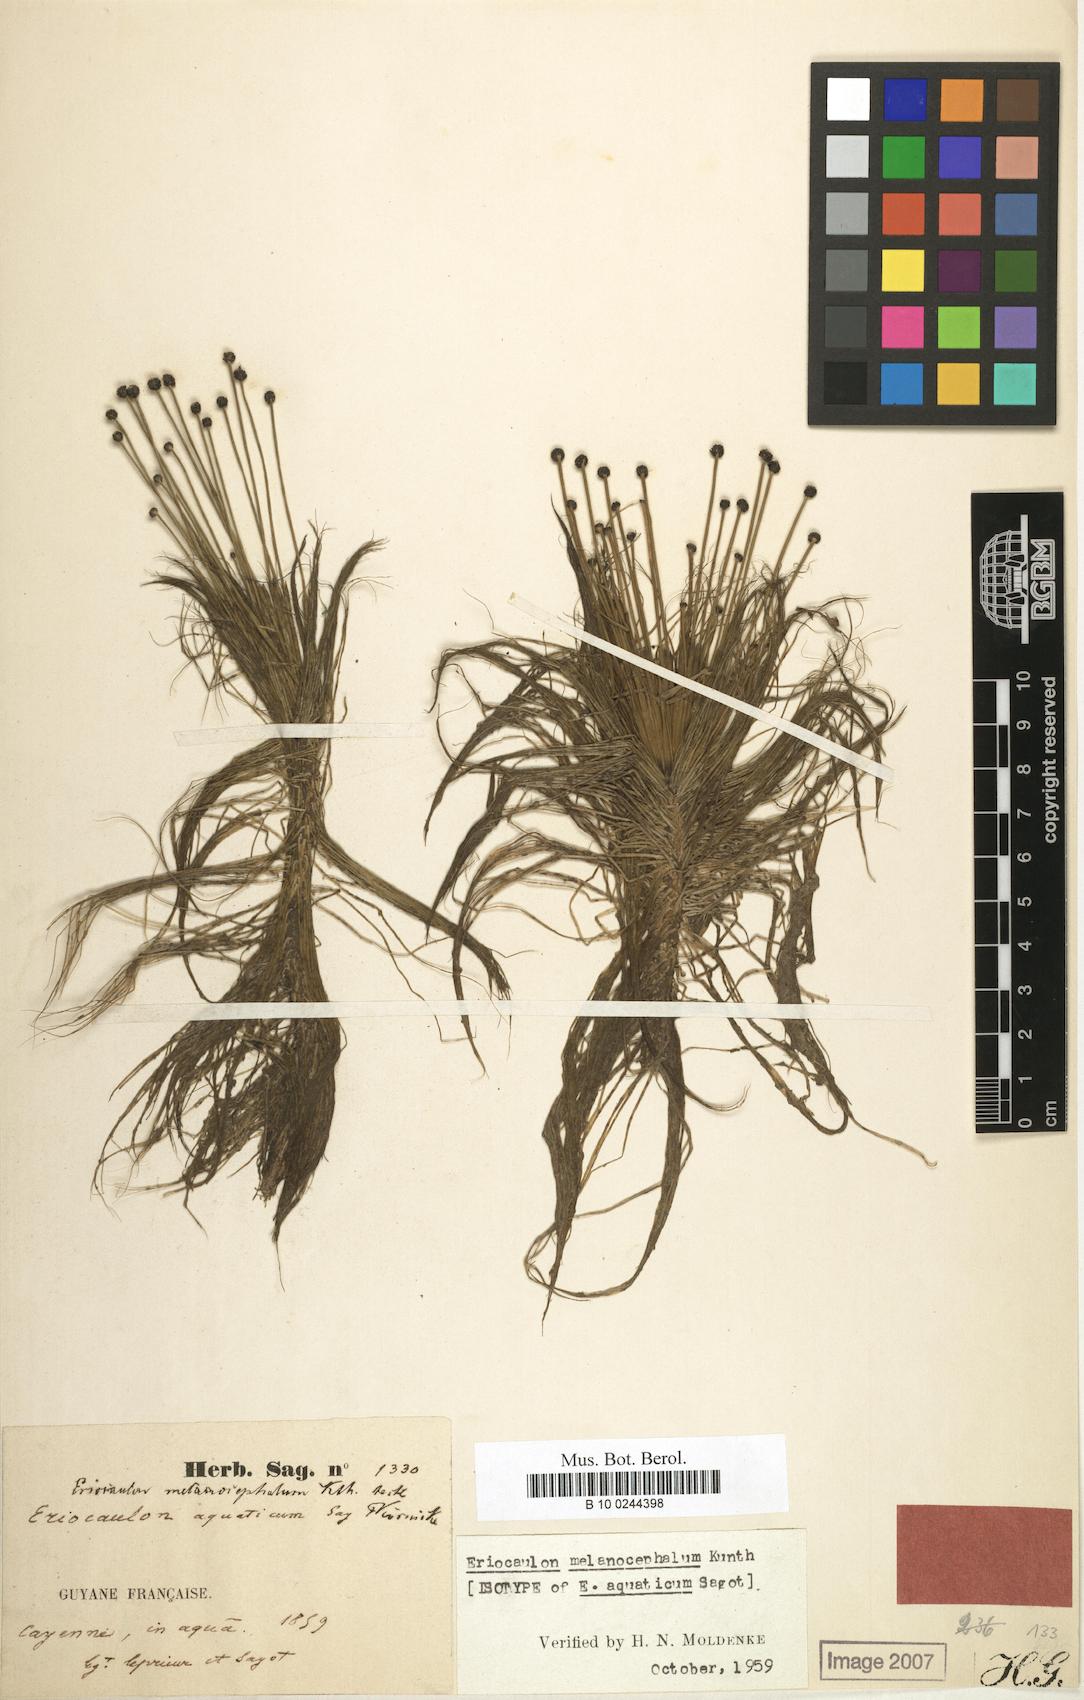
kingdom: Plantae
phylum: Tracheophyta
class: Liliopsida
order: Poales
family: Eriocaulaceae
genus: Eriocaulon
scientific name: Eriocaulon setaceum
